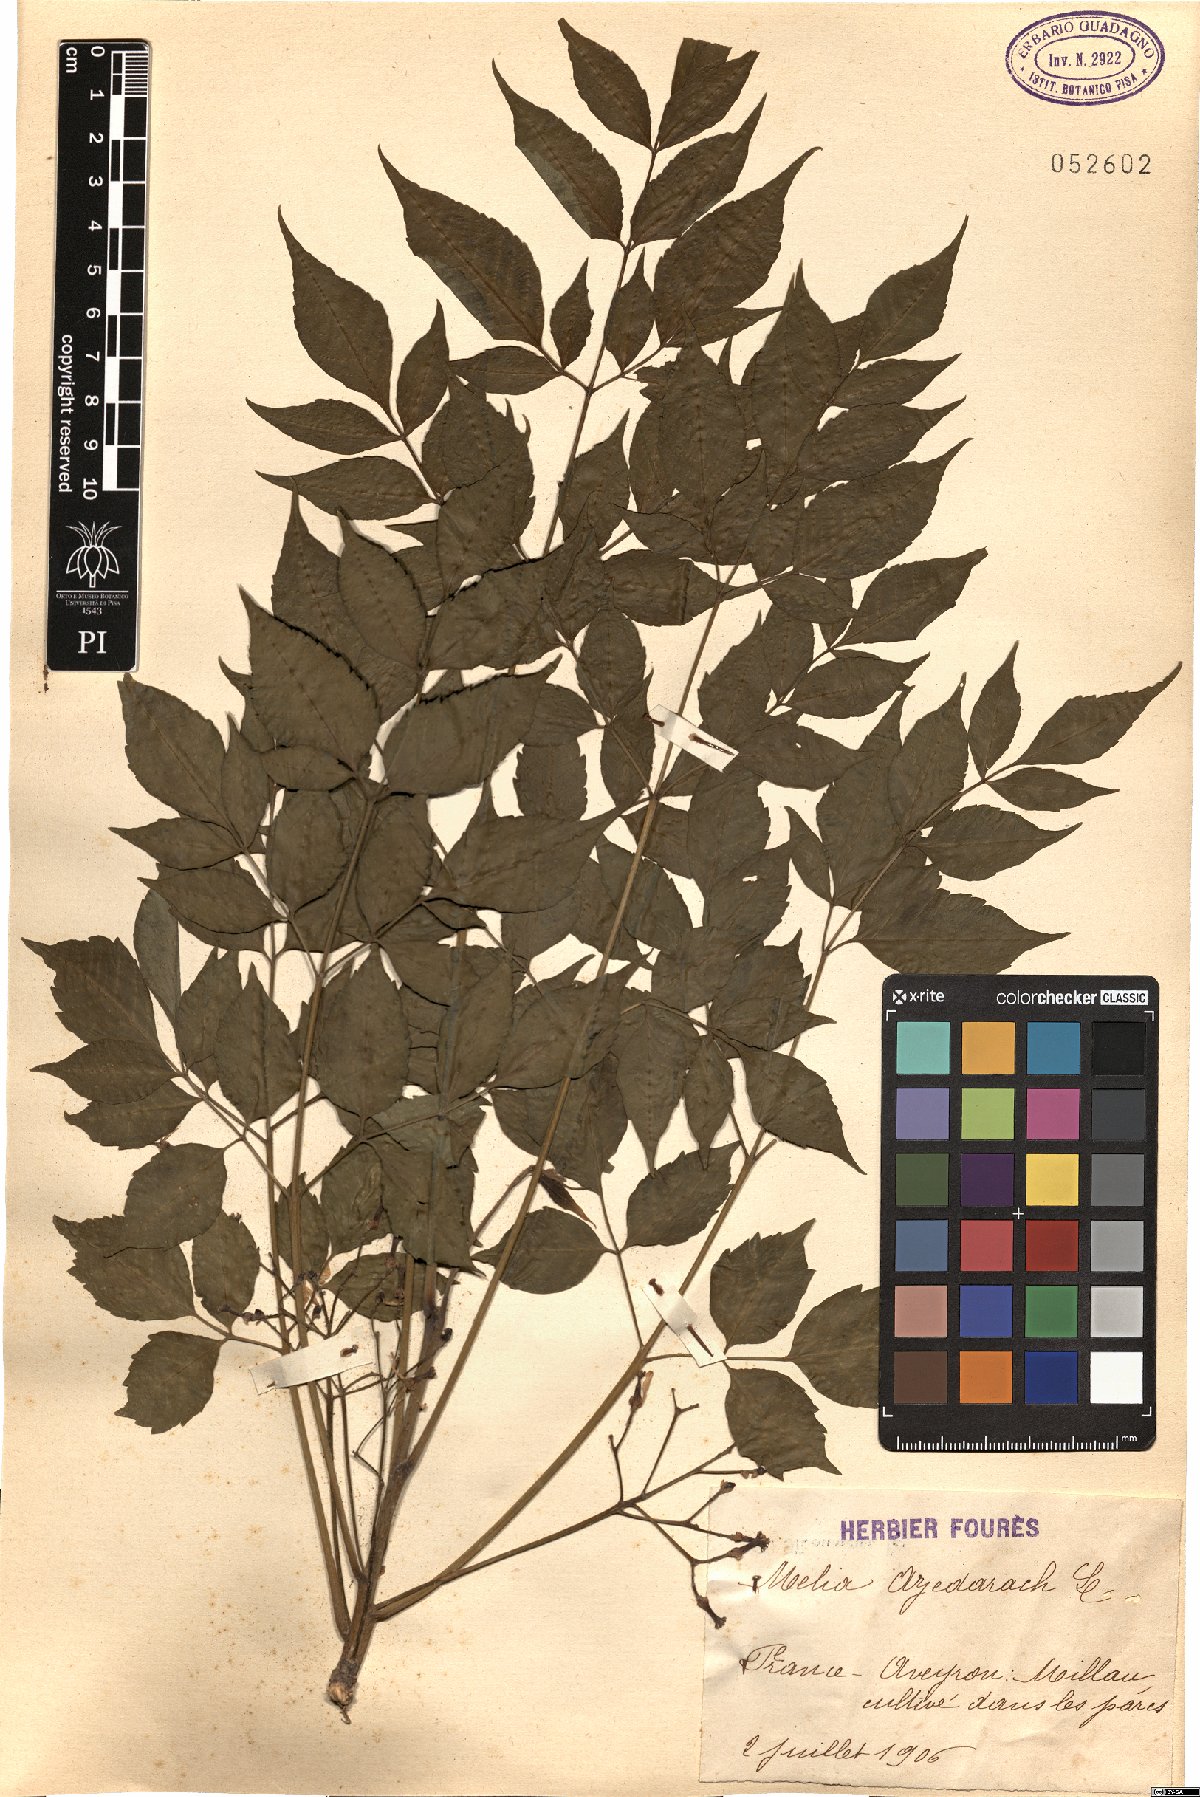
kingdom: Plantae
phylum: Tracheophyta
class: Magnoliopsida
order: Sapindales
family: Meliaceae
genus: Melia
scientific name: Melia azedarach
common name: Chinaberrytree
